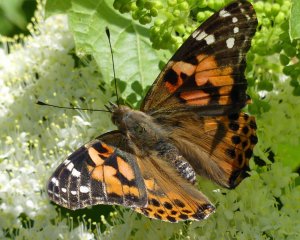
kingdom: Animalia
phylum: Arthropoda
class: Insecta
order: Lepidoptera
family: Nymphalidae
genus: Vanessa
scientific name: Vanessa cardui
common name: Painted Lady
